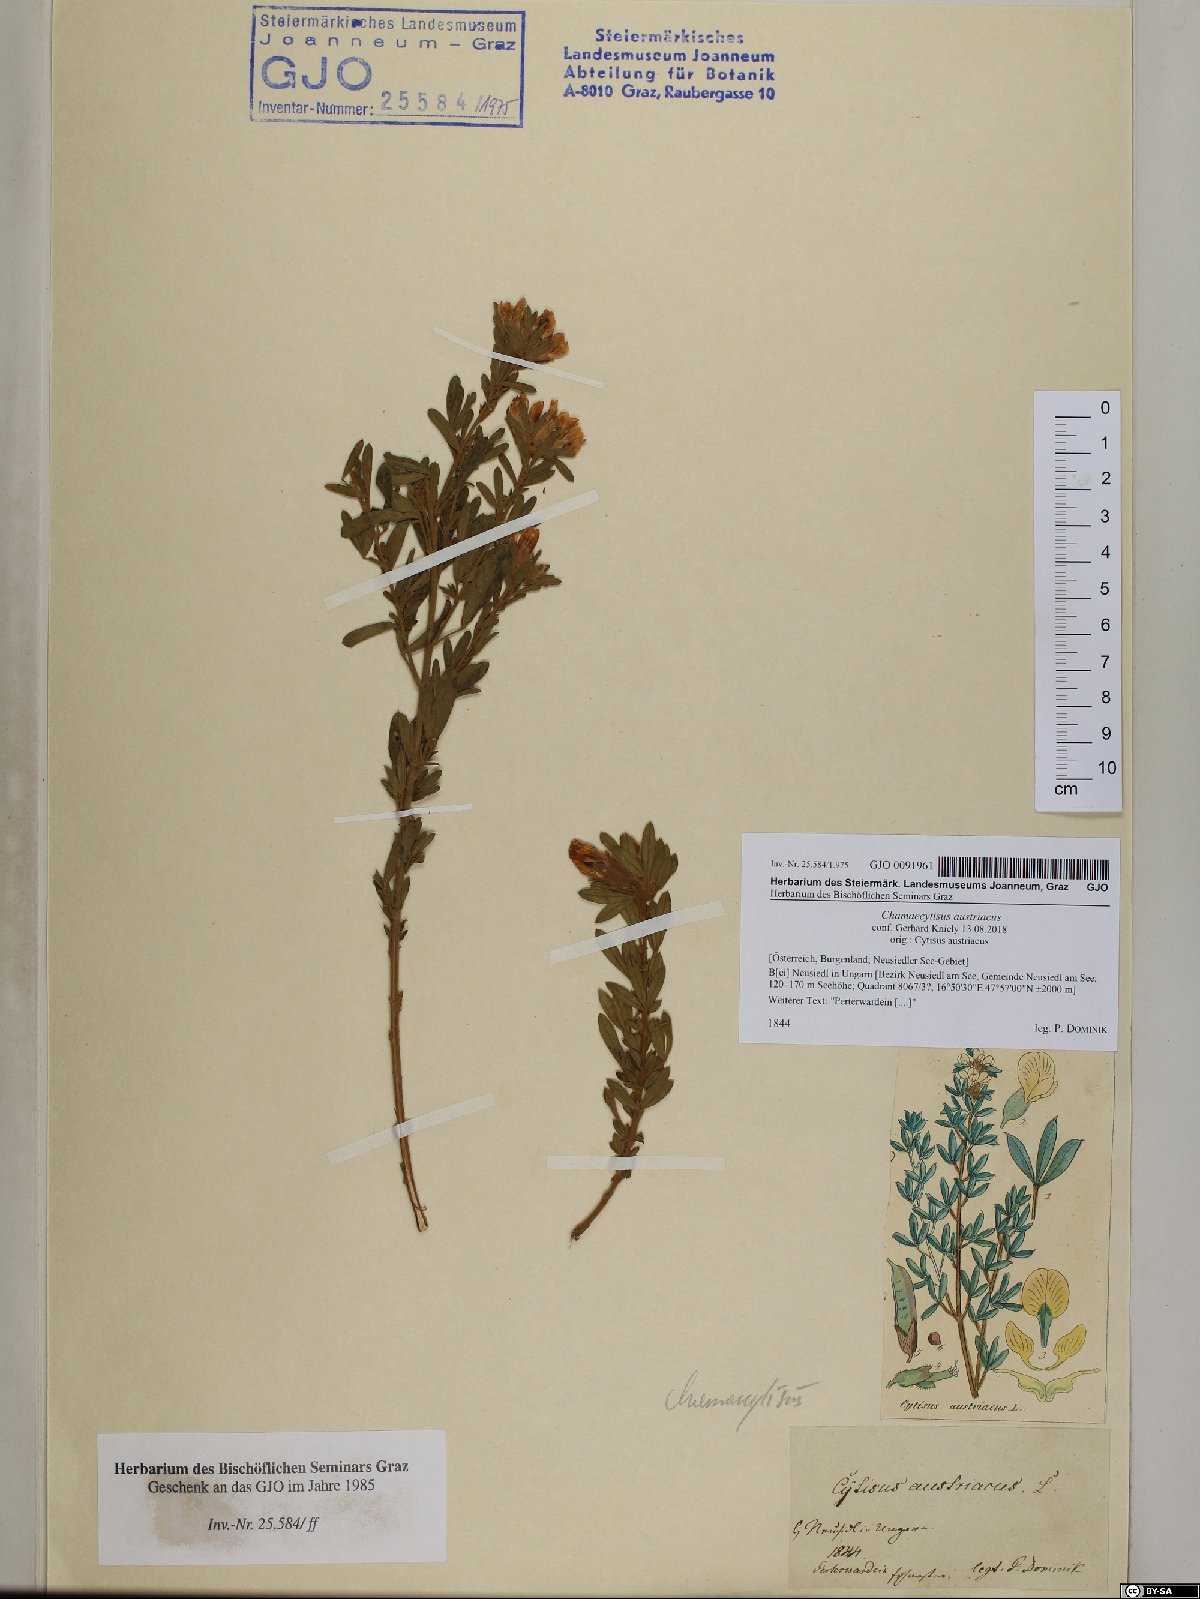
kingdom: Plantae
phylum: Tracheophyta
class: Magnoliopsida
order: Fabales
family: Fabaceae
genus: Chamaecytisus
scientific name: Chamaecytisus austriacus
